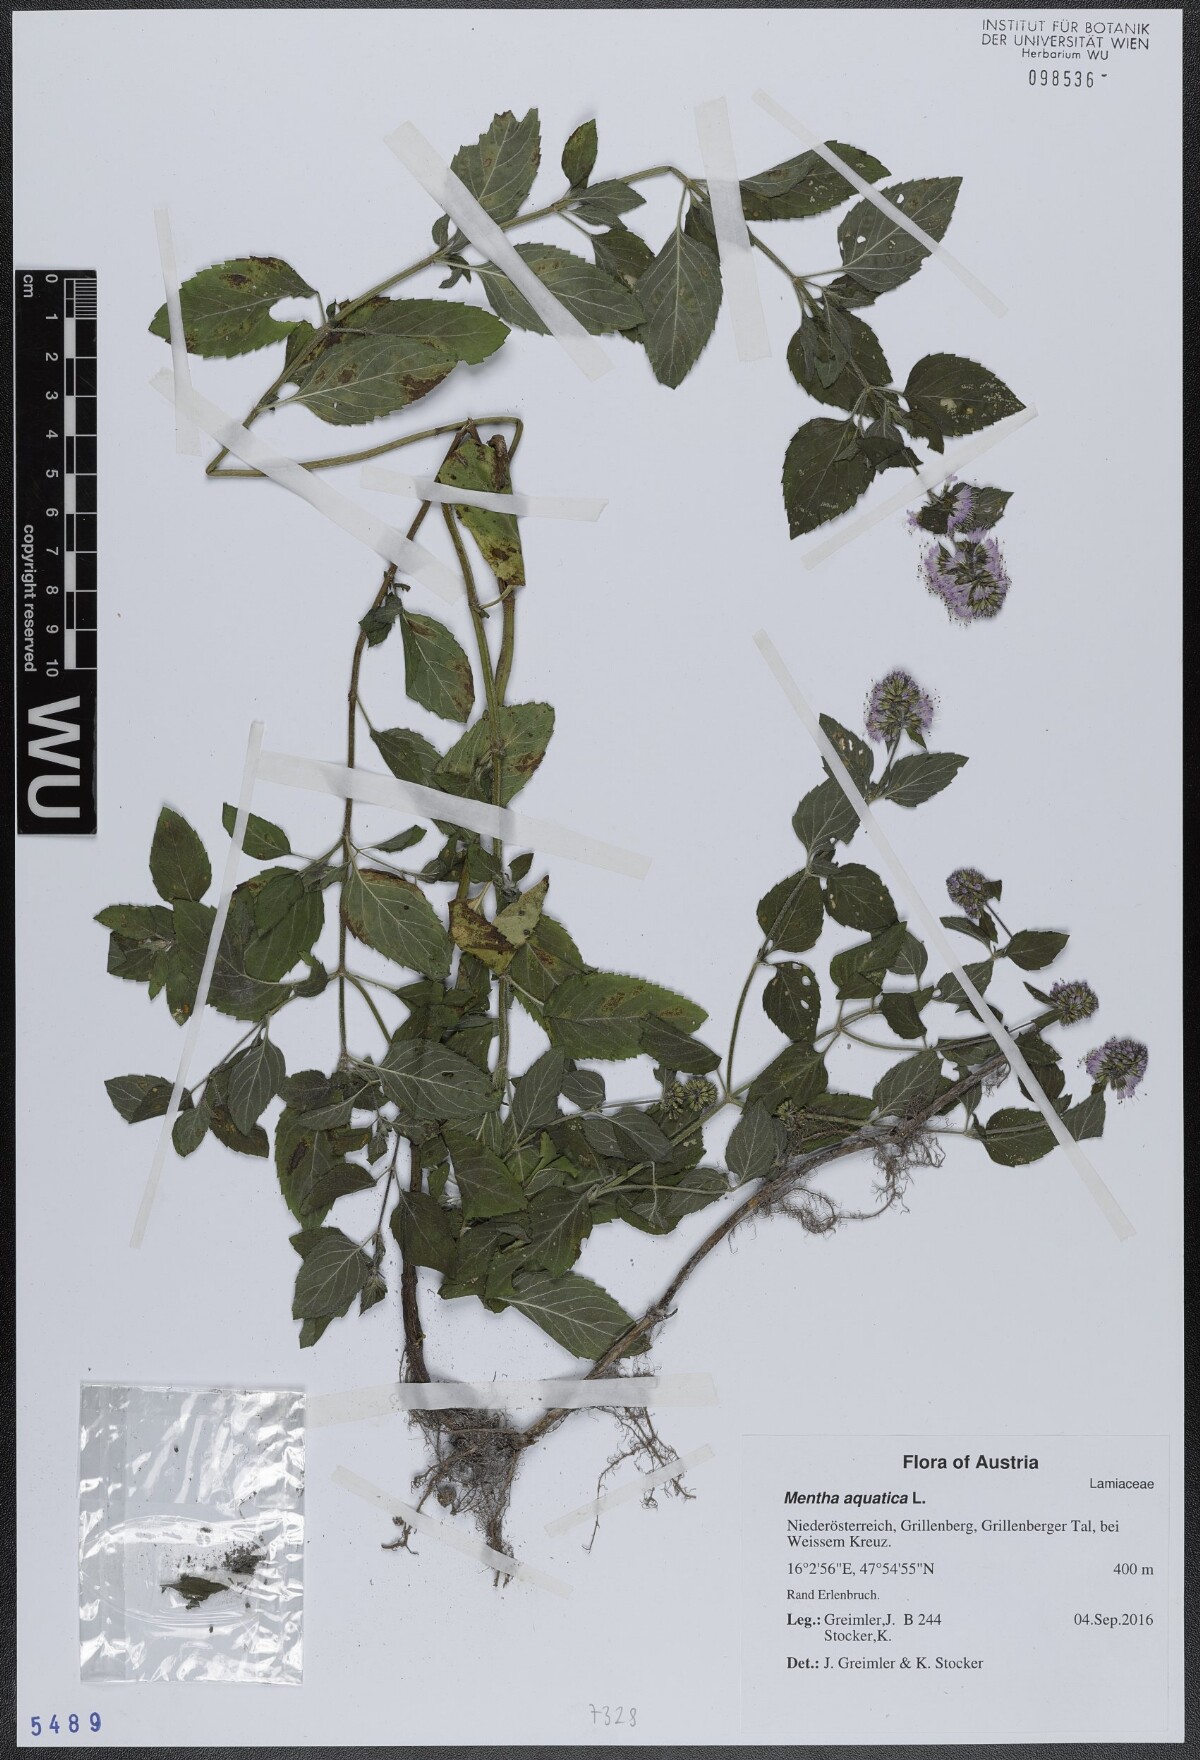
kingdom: Plantae
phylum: Tracheophyta
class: Magnoliopsida
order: Lamiales
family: Lamiaceae
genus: Mentha
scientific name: Mentha aquatica
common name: Water mint
